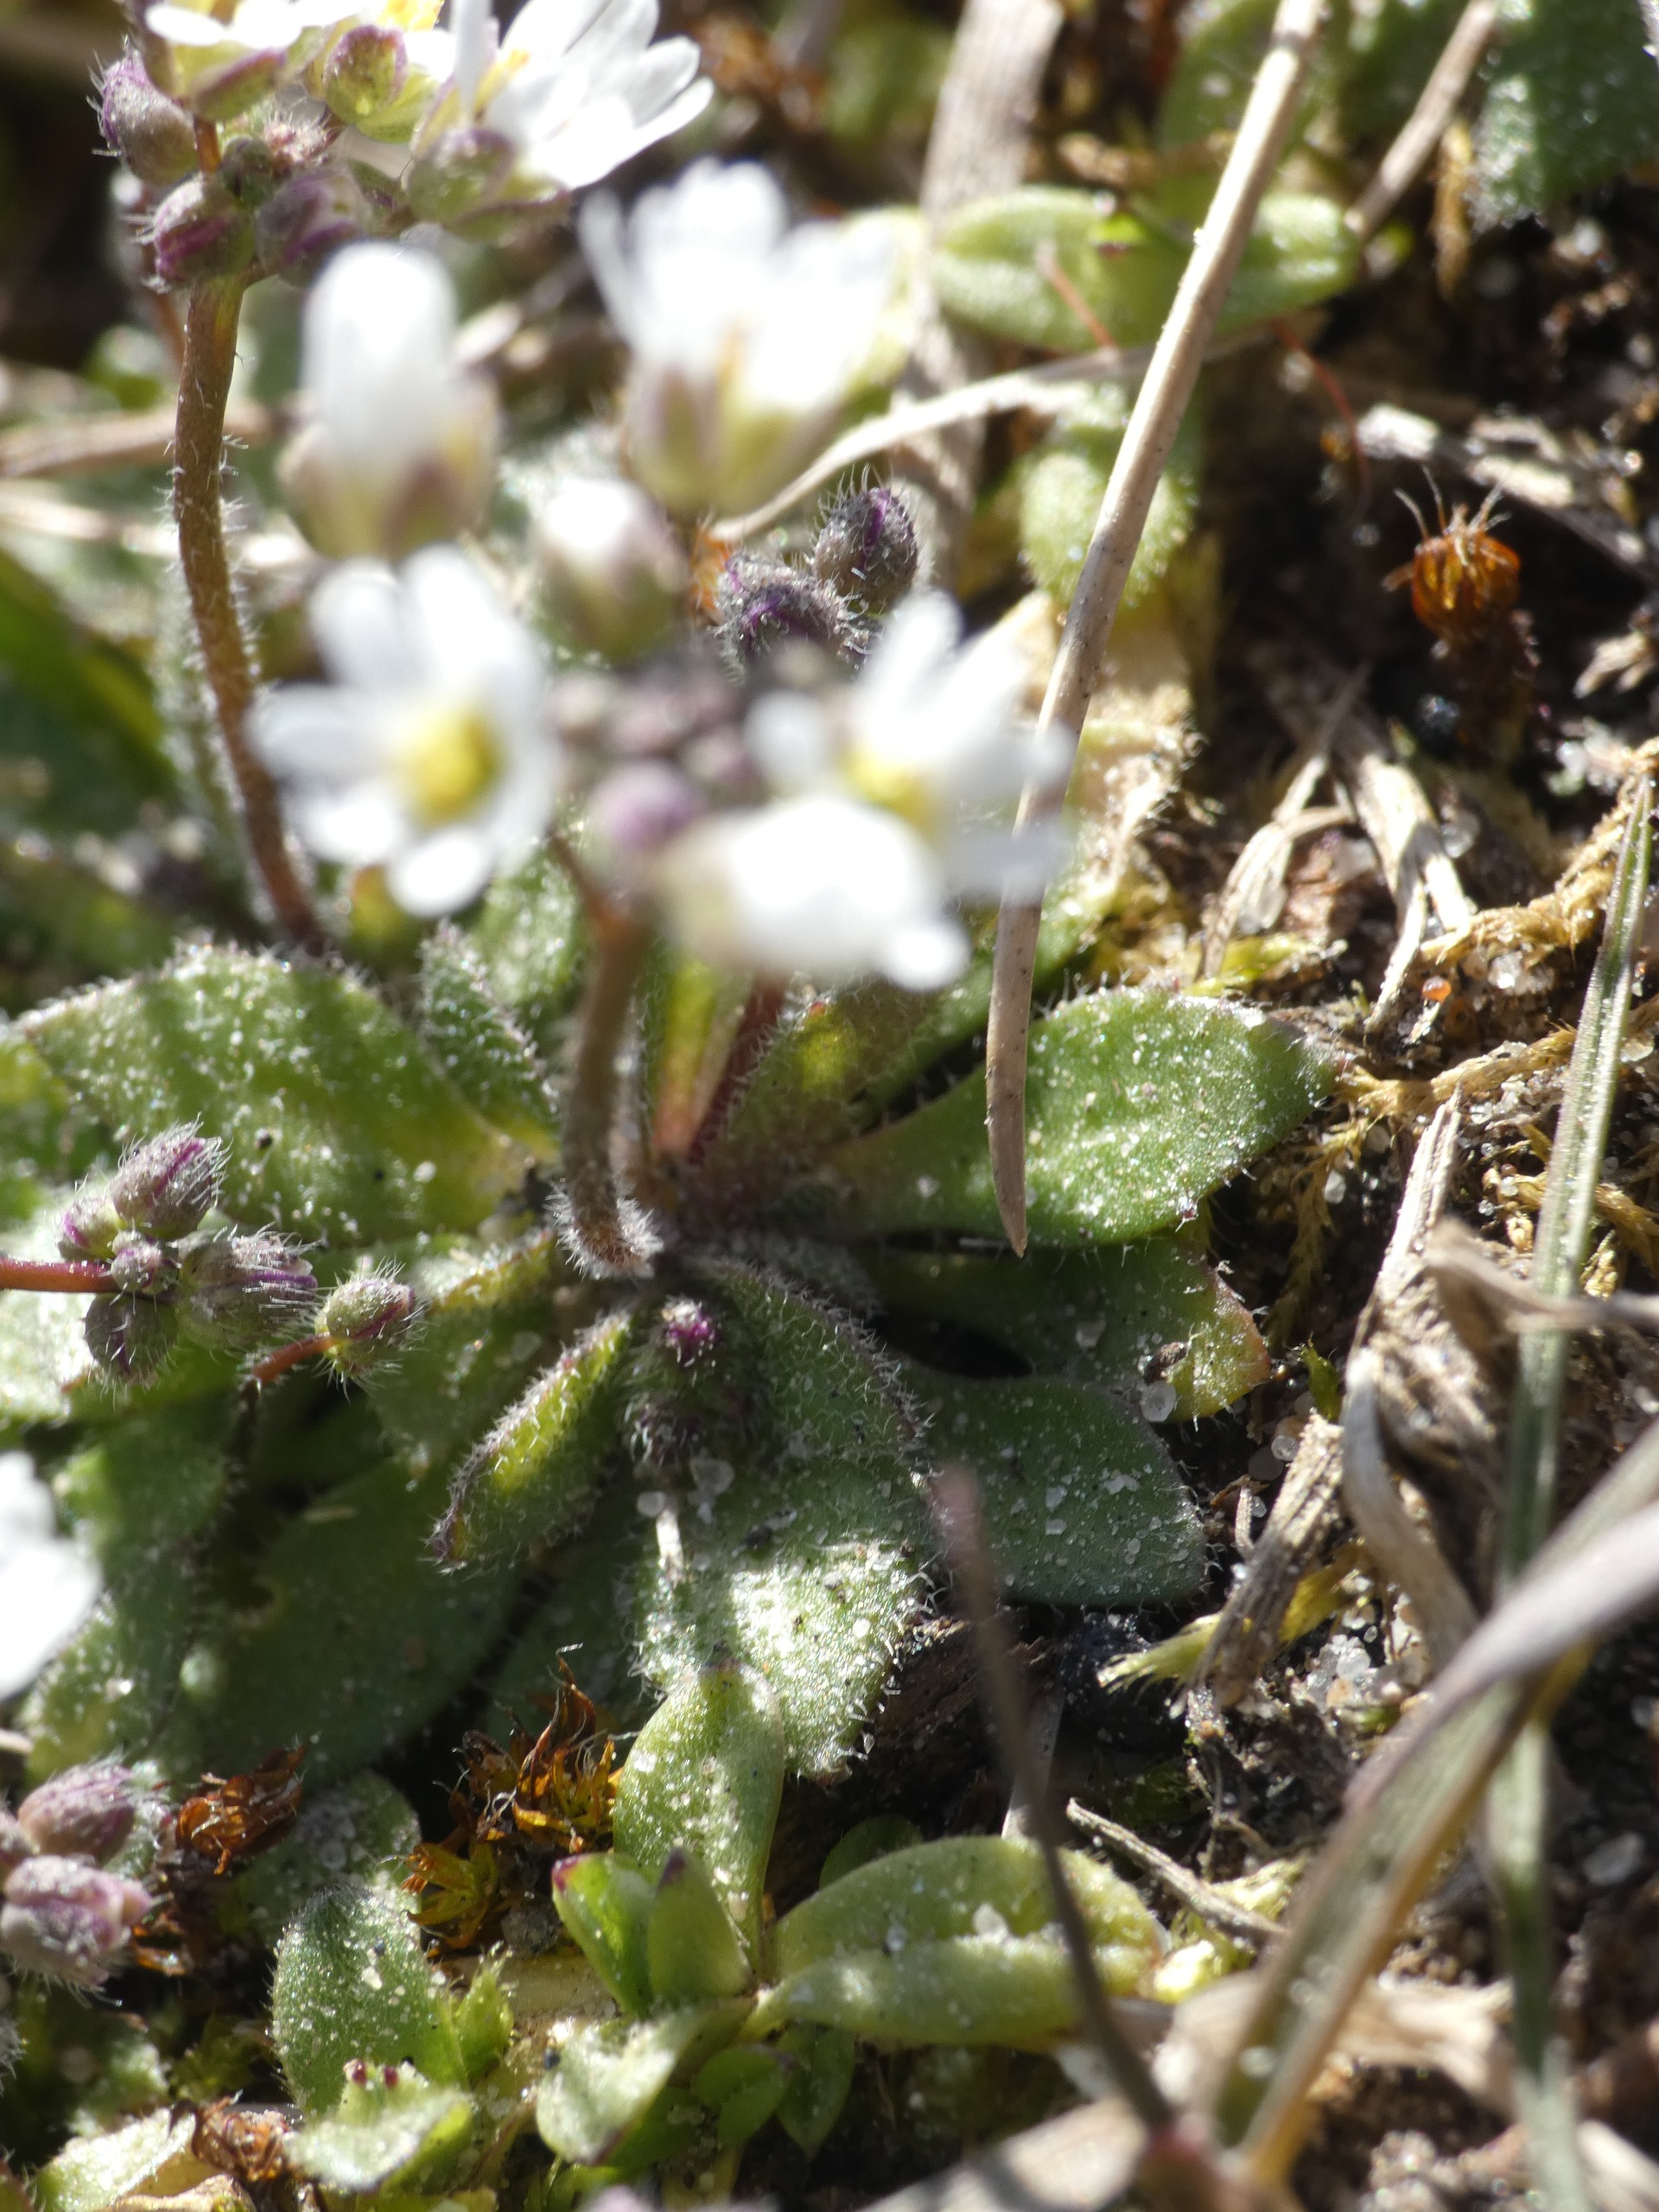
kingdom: Plantae
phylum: Tracheophyta
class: Magnoliopsida
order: Brassicales
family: Brassicaceae
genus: Draba
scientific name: Draba verna
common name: Vår-gæslingeblomst
